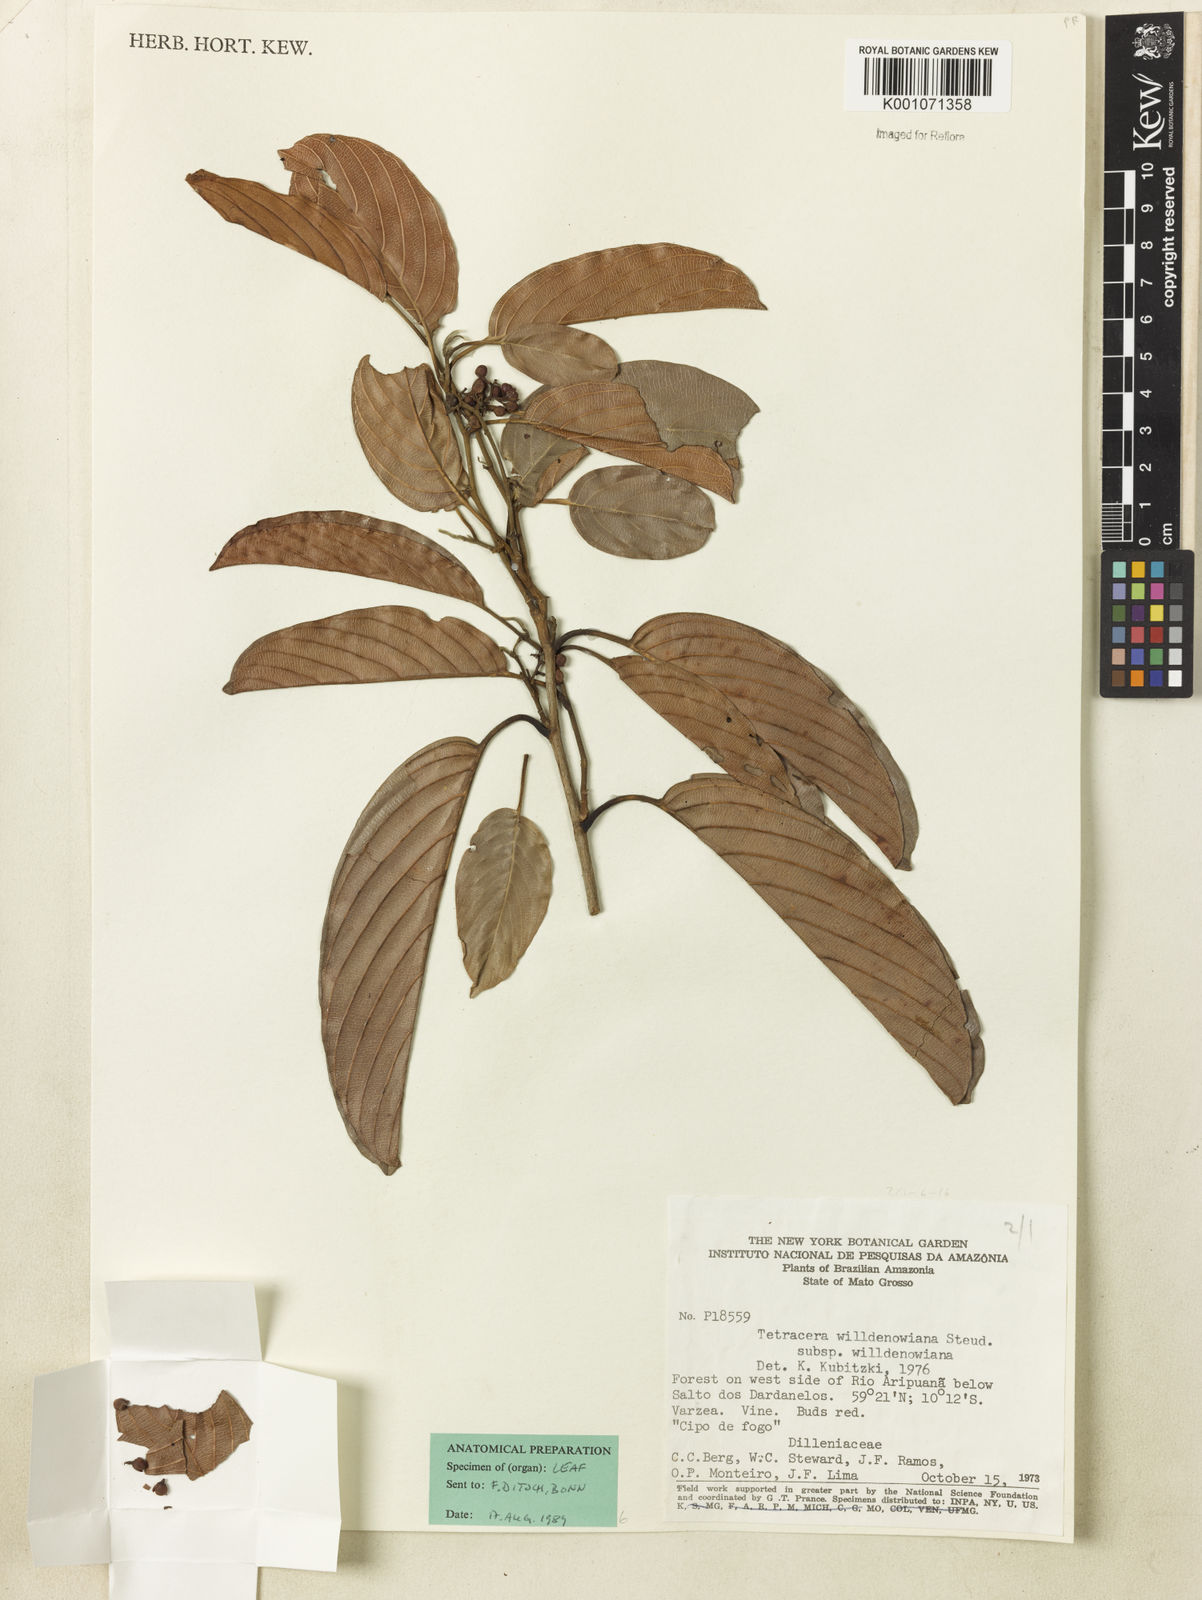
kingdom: Plantae
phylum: Tracheophyta
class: Magnoliopsida
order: Dilleniales
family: Dilleniaceae
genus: Tetracera
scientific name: Tetracera willdenowiana
